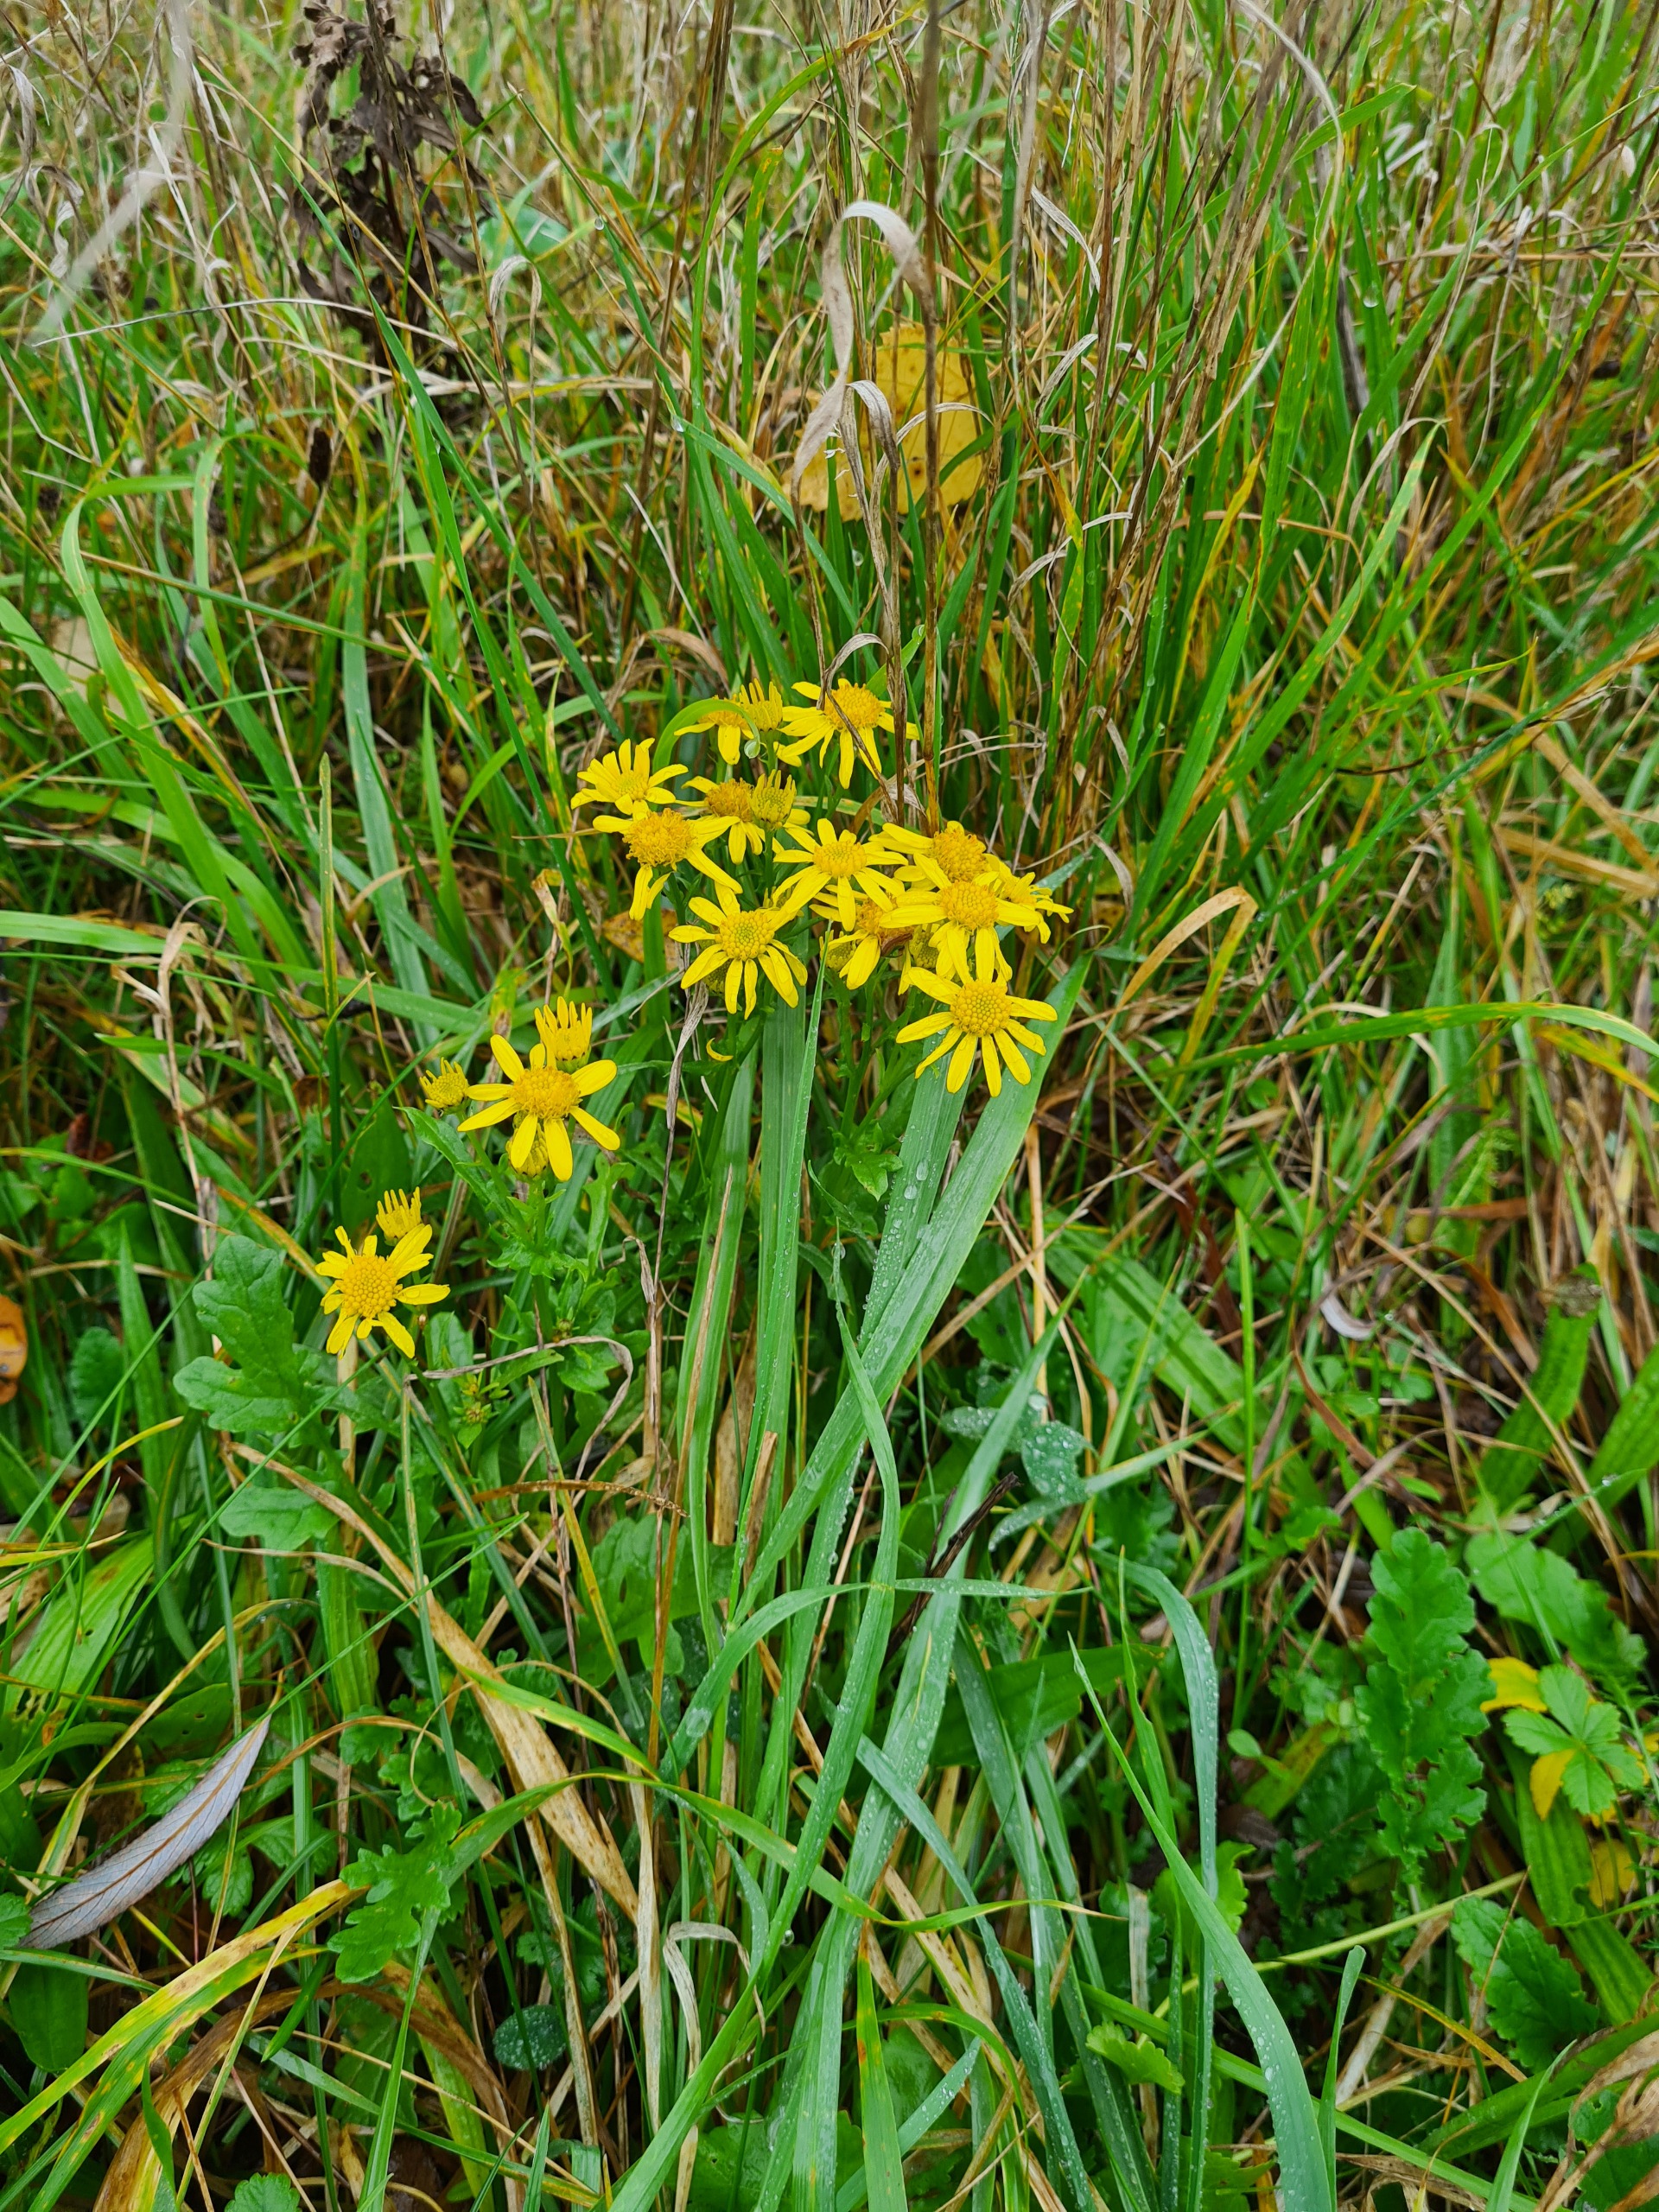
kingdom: Plantae
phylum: Tracheophyta
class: Magnoliopsida
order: Asterales
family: Asteraceae
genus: Jacobaea
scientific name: Jacobaea vulgaris
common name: Eng-brandbæger
